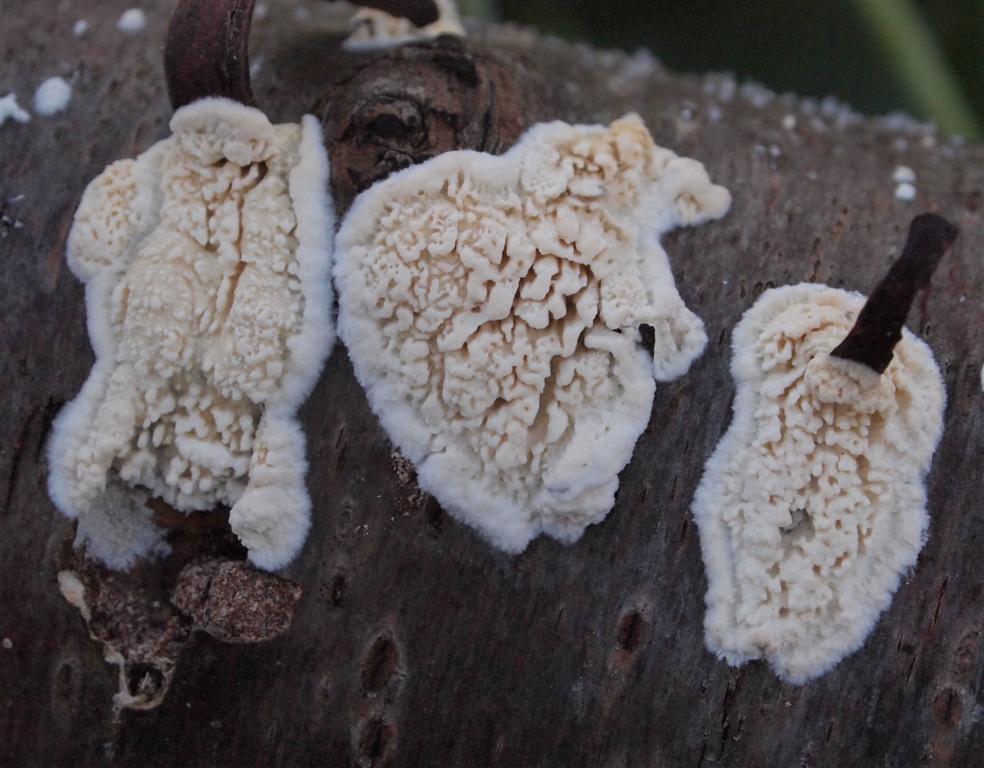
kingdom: Fungi
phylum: Basidiomycota
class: Agaricomycetes
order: Hymenochaetales
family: Schizoporaceae
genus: Xylodon
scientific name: Xylodon radula
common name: grovtandet kalkskind
